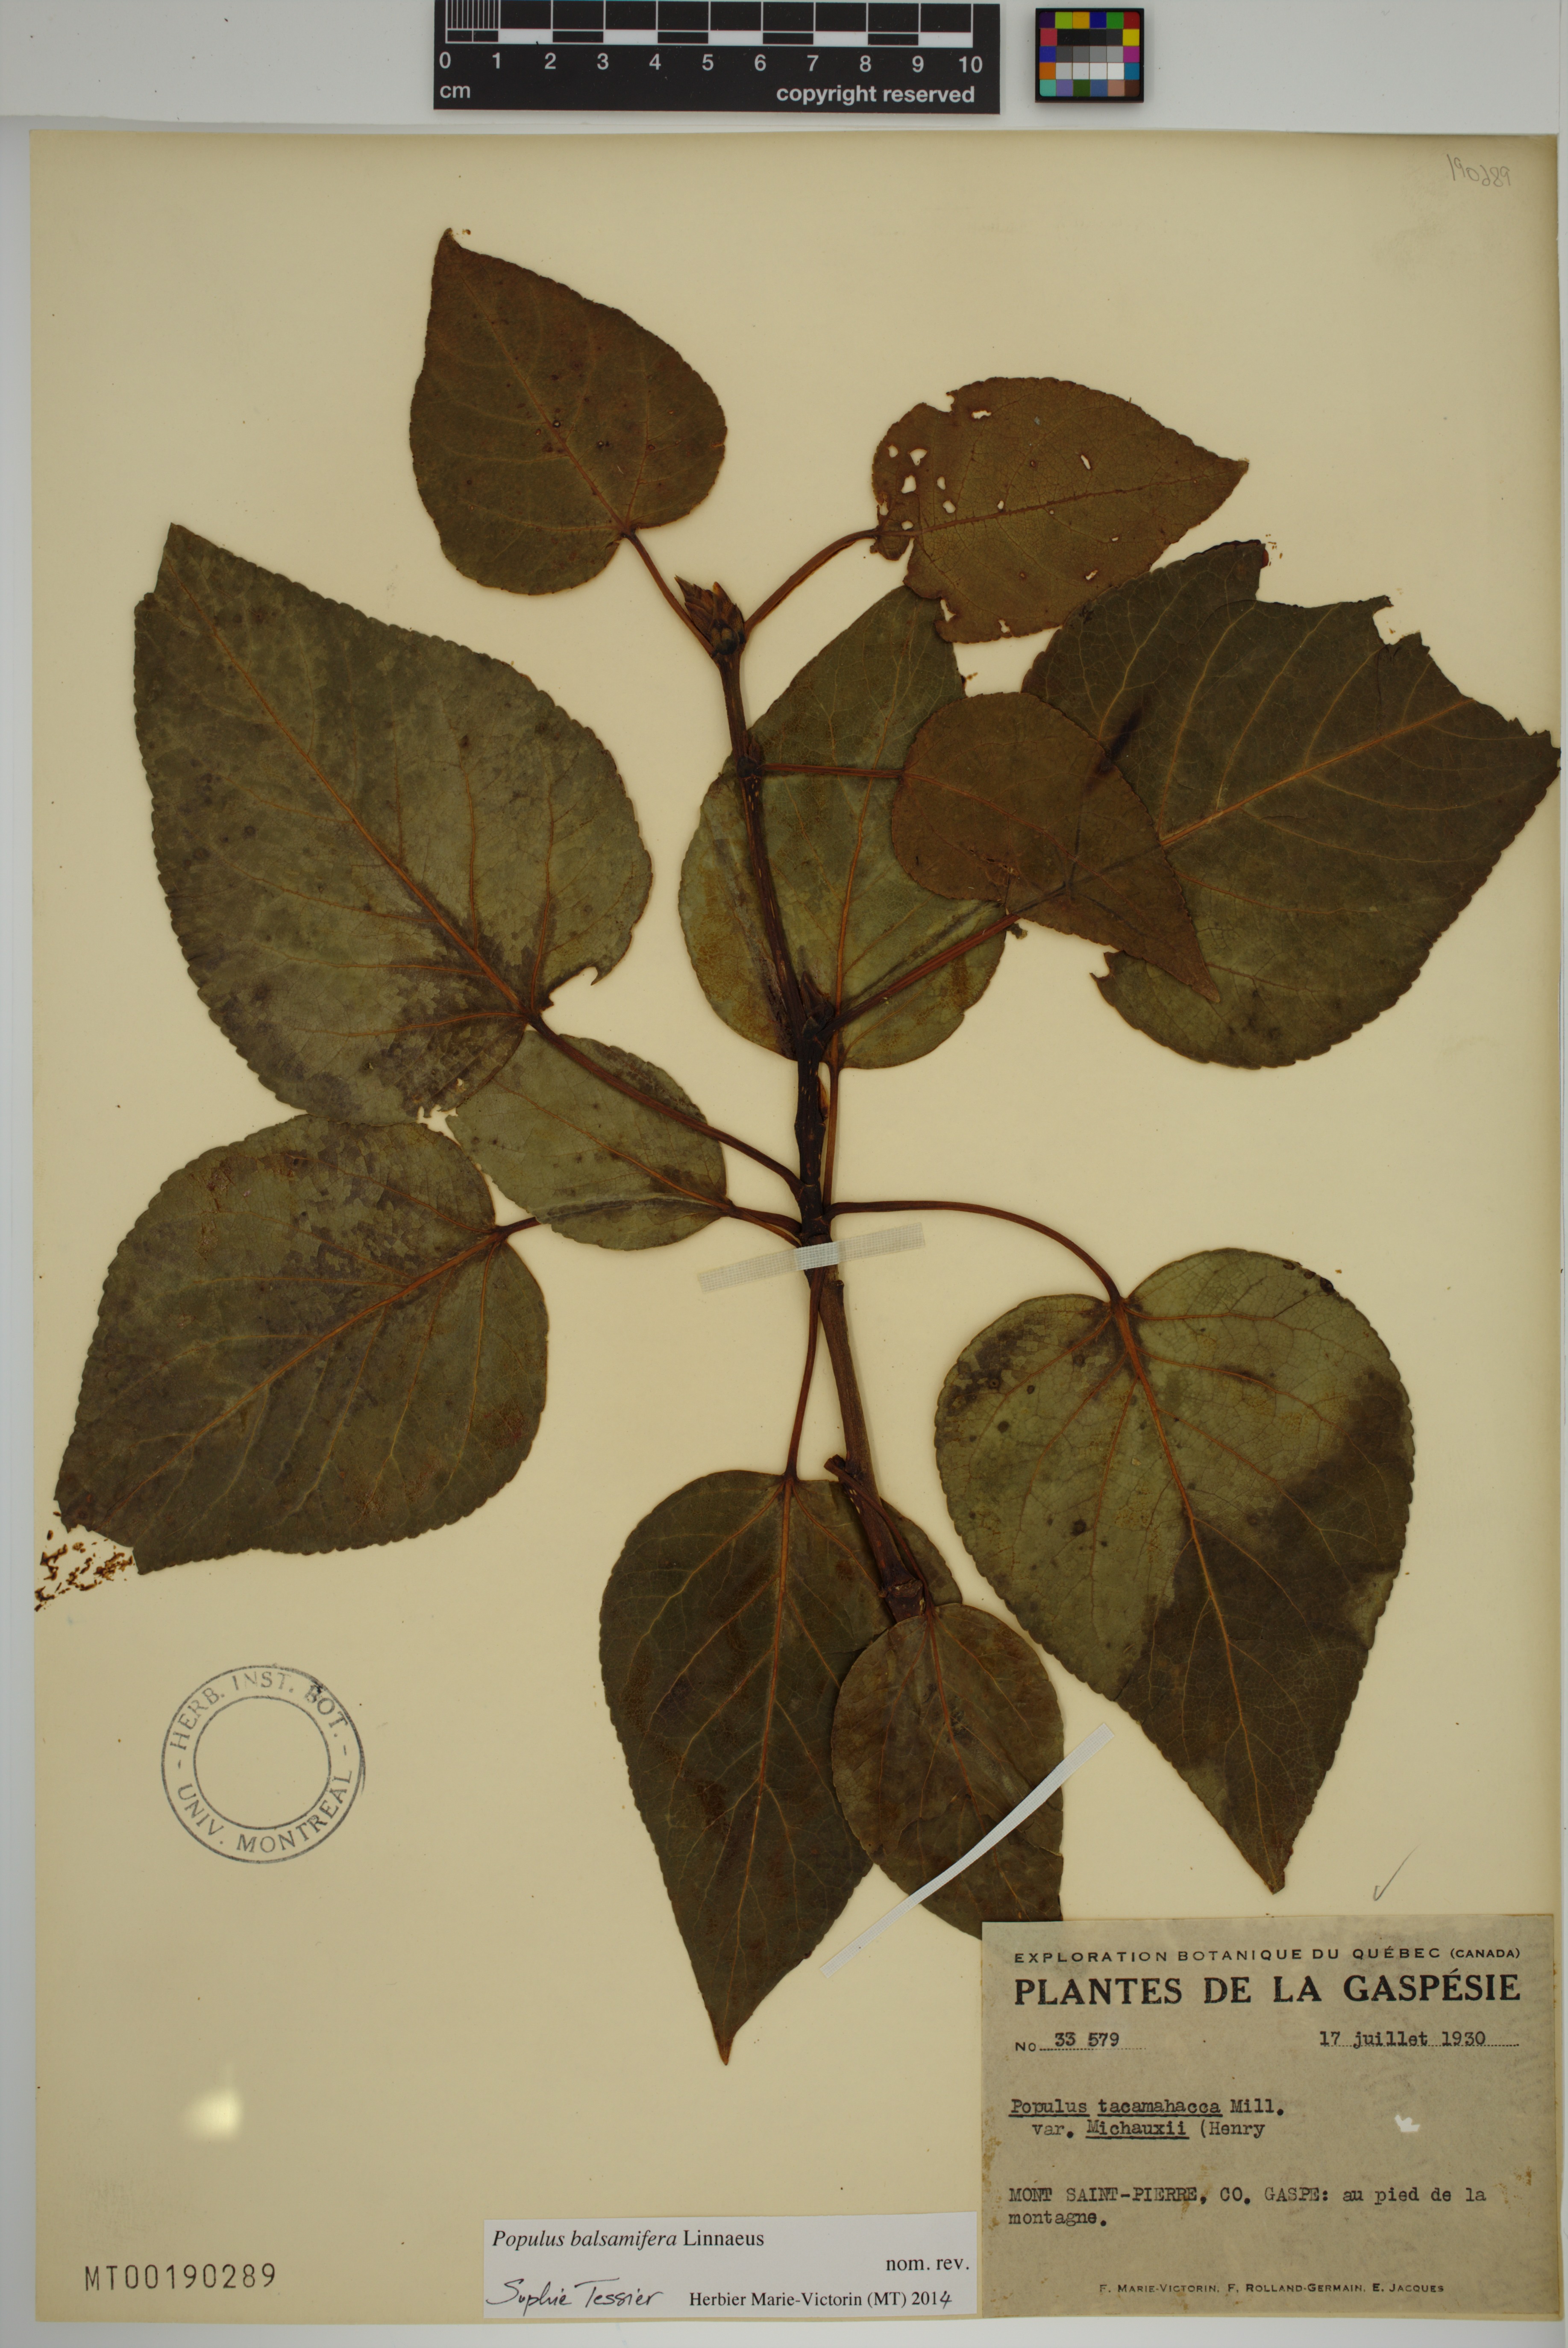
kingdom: Plantae
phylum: Tracheophyta
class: Magnoliopsida
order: Malpighiales
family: Salicaceae
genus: Populus
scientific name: Populus balsamifera
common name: Balsam poplar
